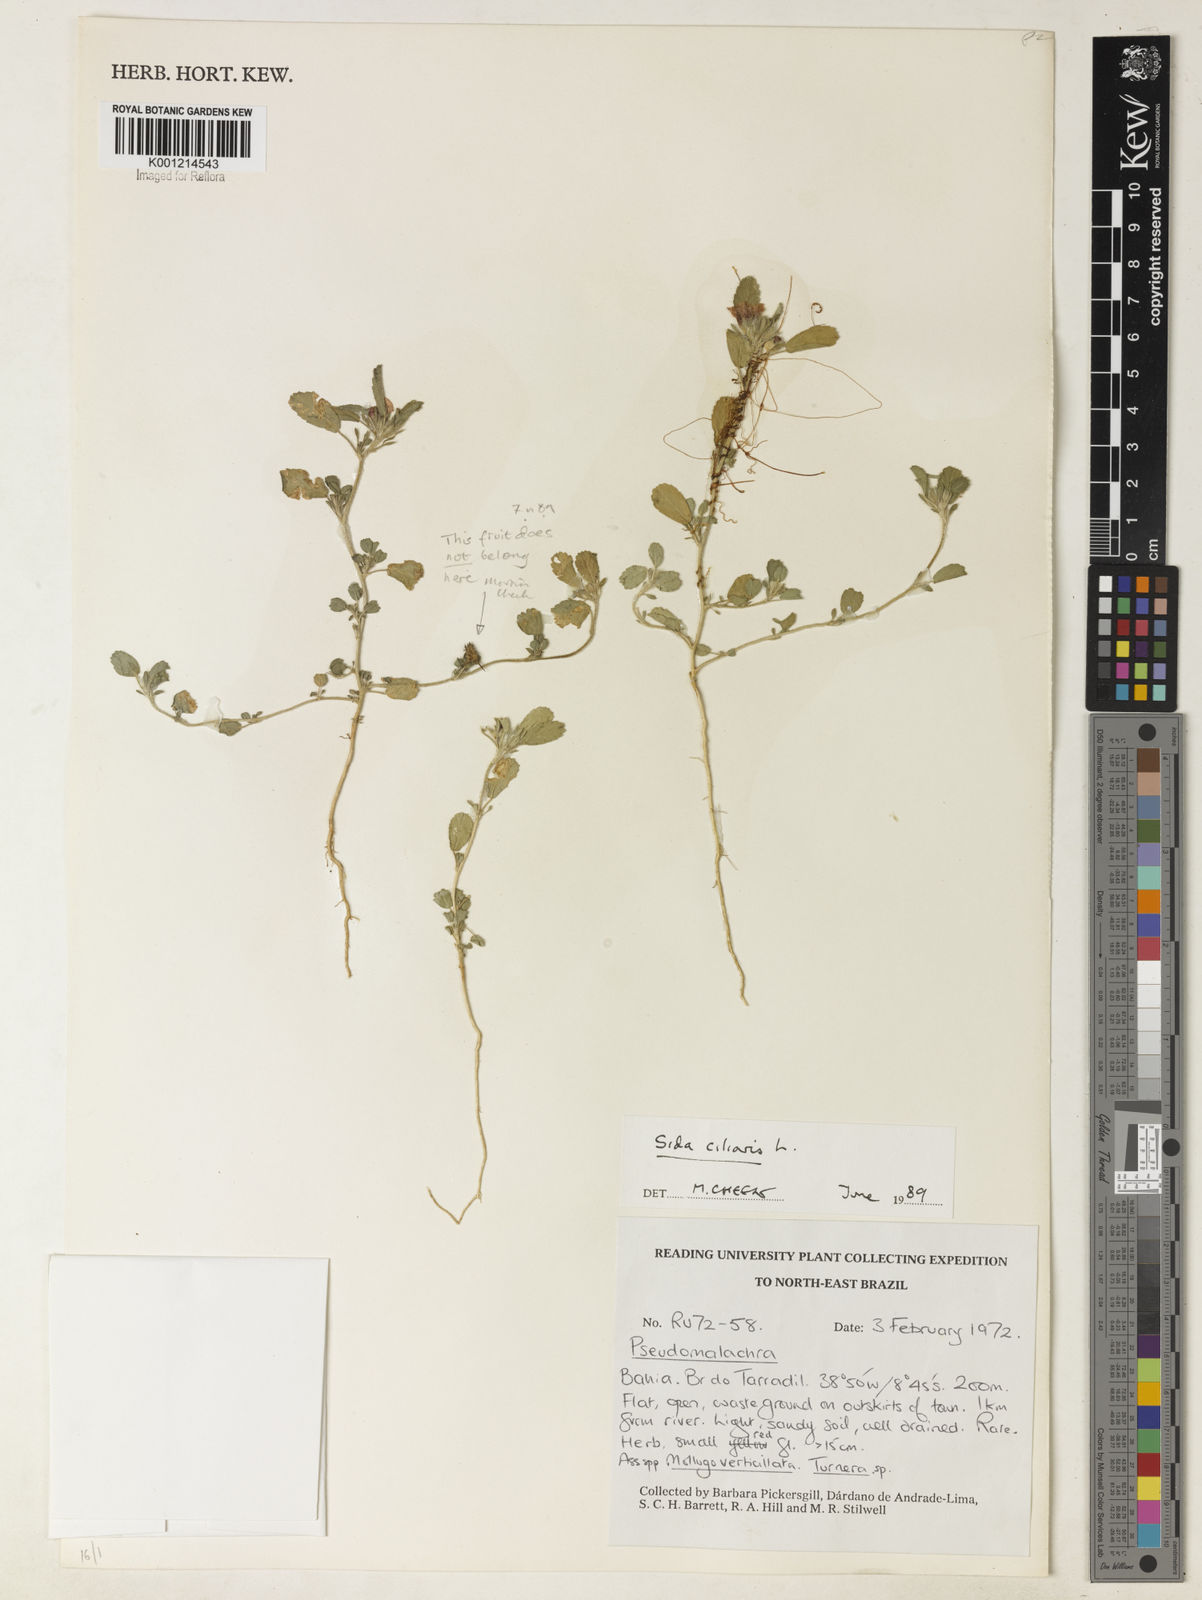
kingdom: Plantae
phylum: Tracheophyta
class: Magnoliopsida
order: Malvales
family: Malvaceae
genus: Sida
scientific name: Sida ciliaris
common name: Bracted fanpetals
